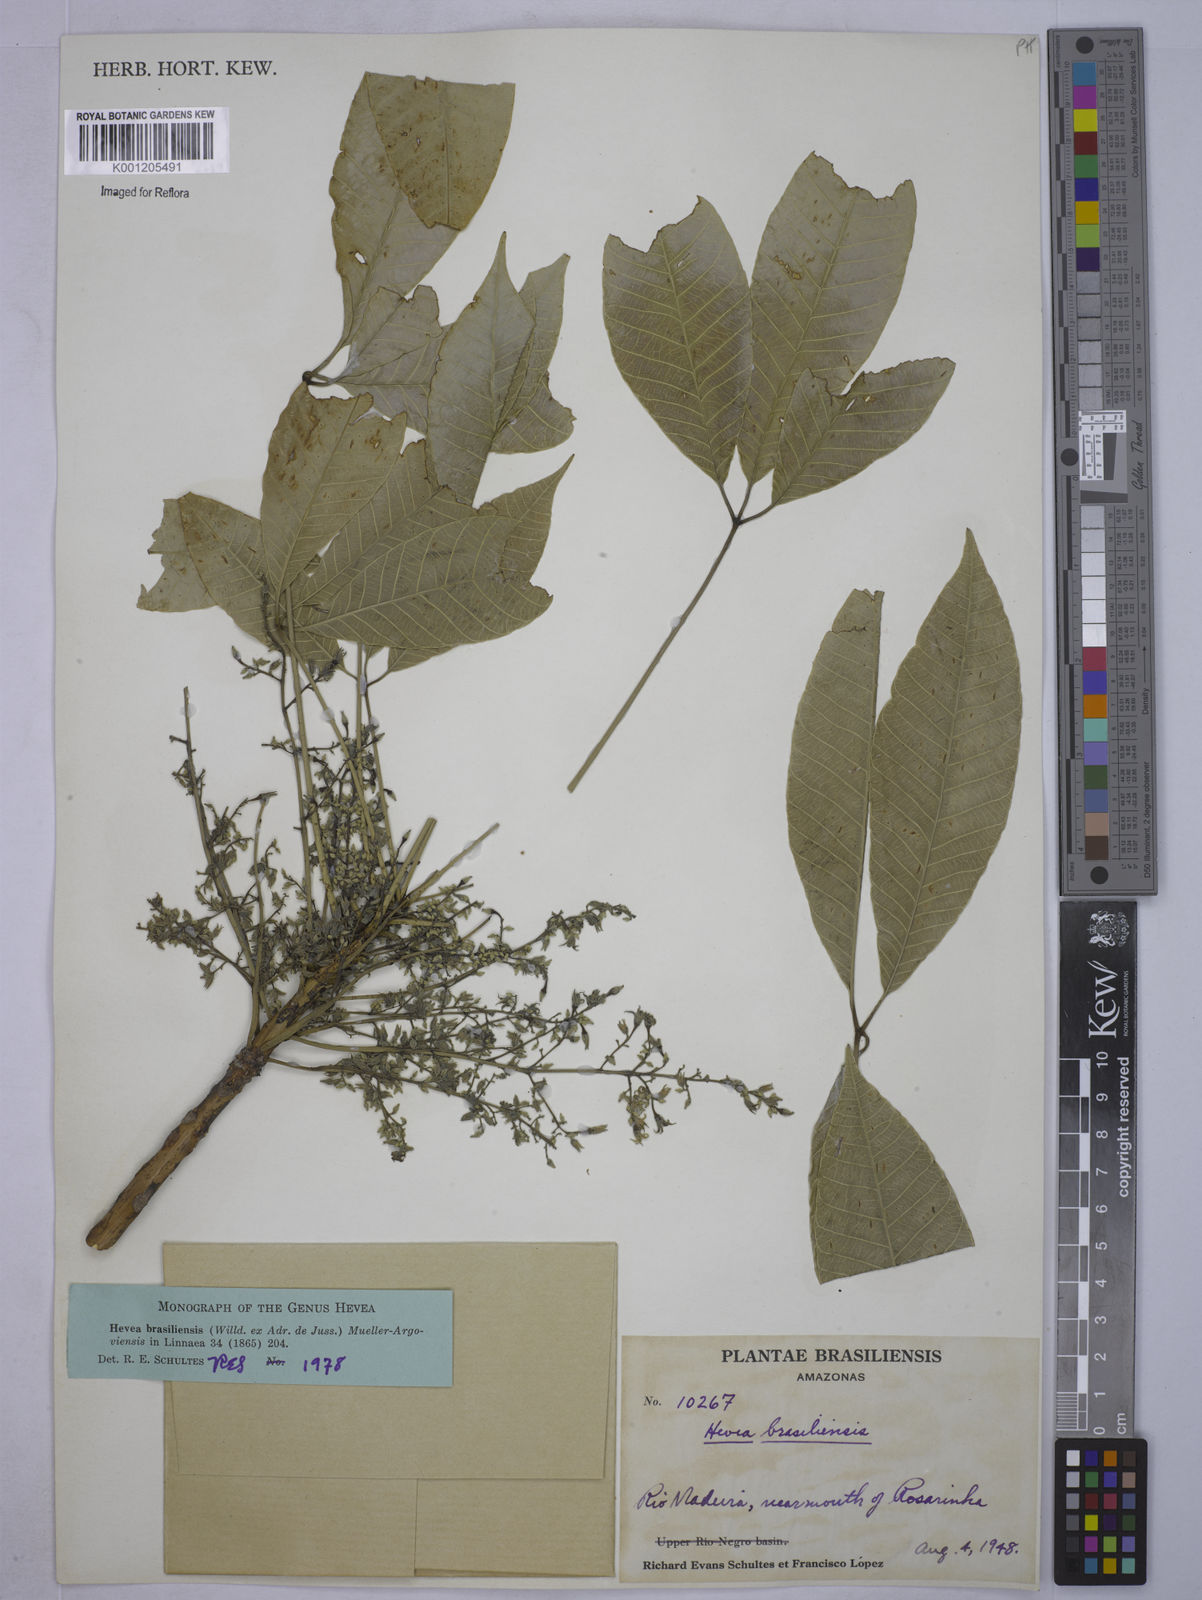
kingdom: Plantae
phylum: Tracheophyta
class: Magnoliopsida
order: Malpighiales
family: Euphorbiaceae
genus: Hevea
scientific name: Hevea
